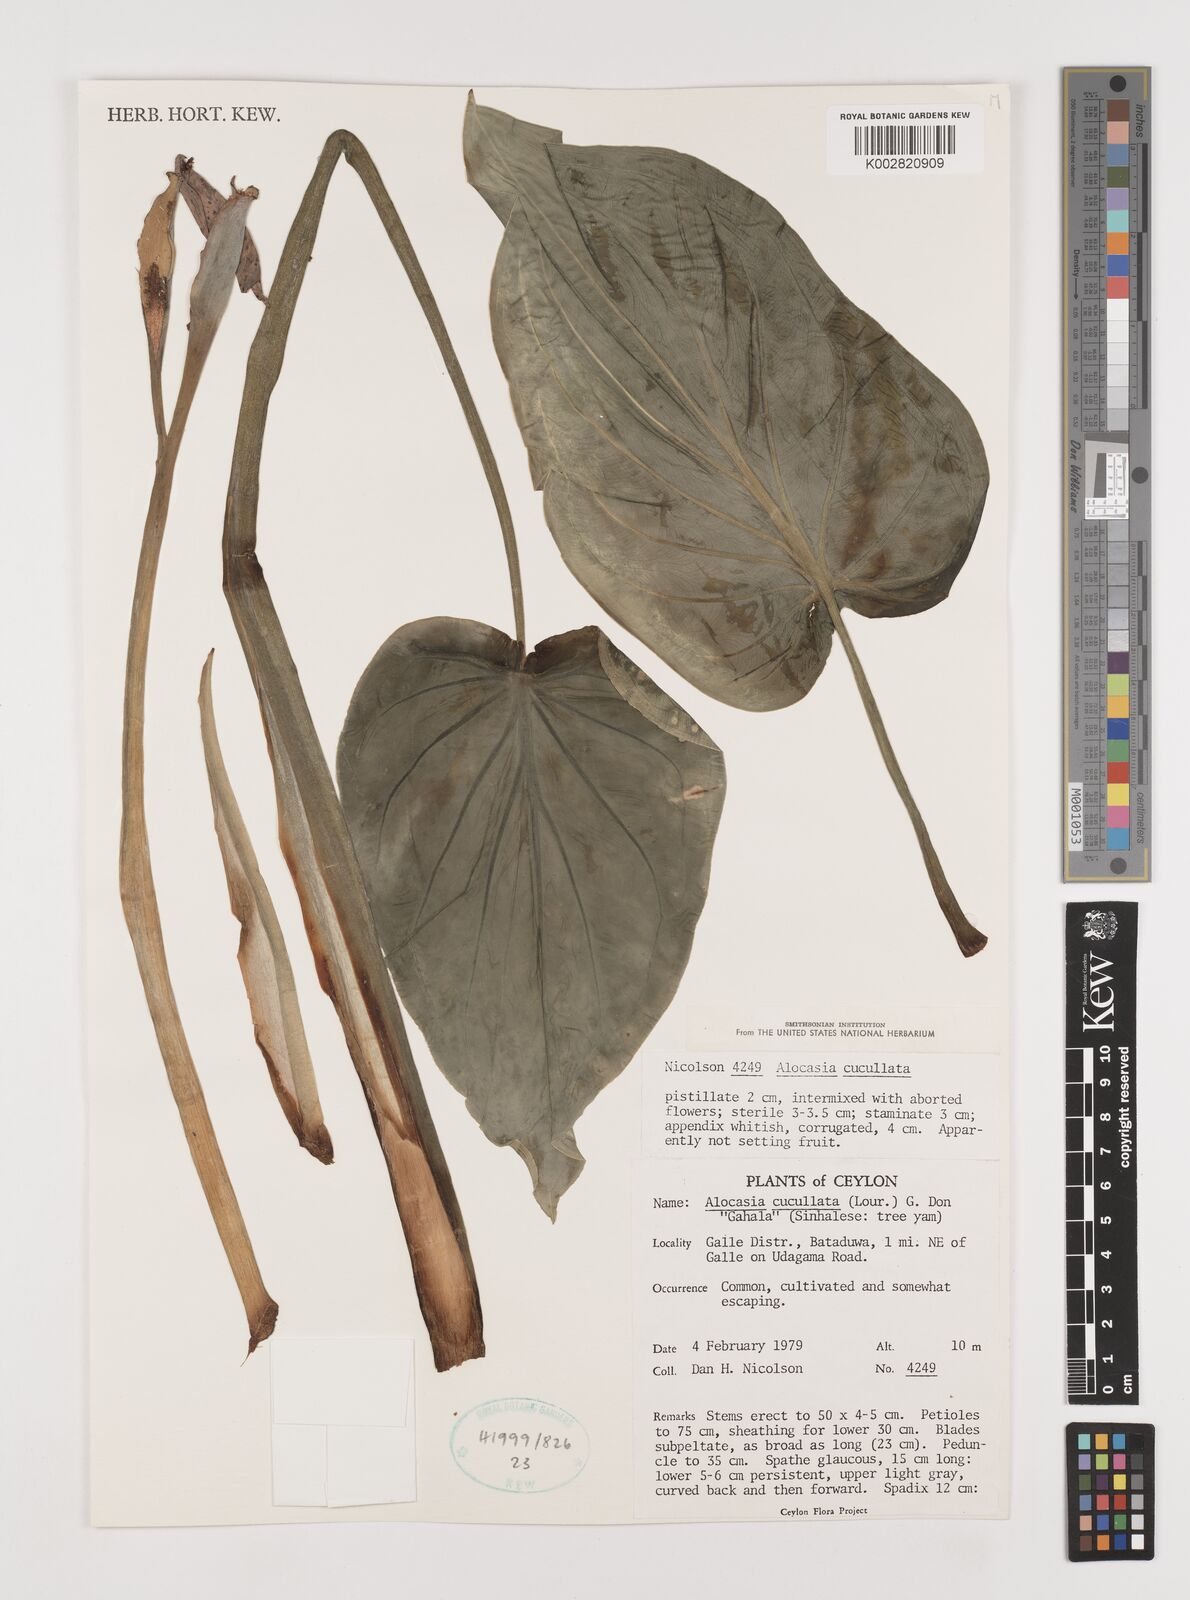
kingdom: Plantae
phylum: Tracheophyta
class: Liliopsida
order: Alismatales
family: Araceae
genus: Alocasia
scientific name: Alocasia cucullata
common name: Buddha's hand
